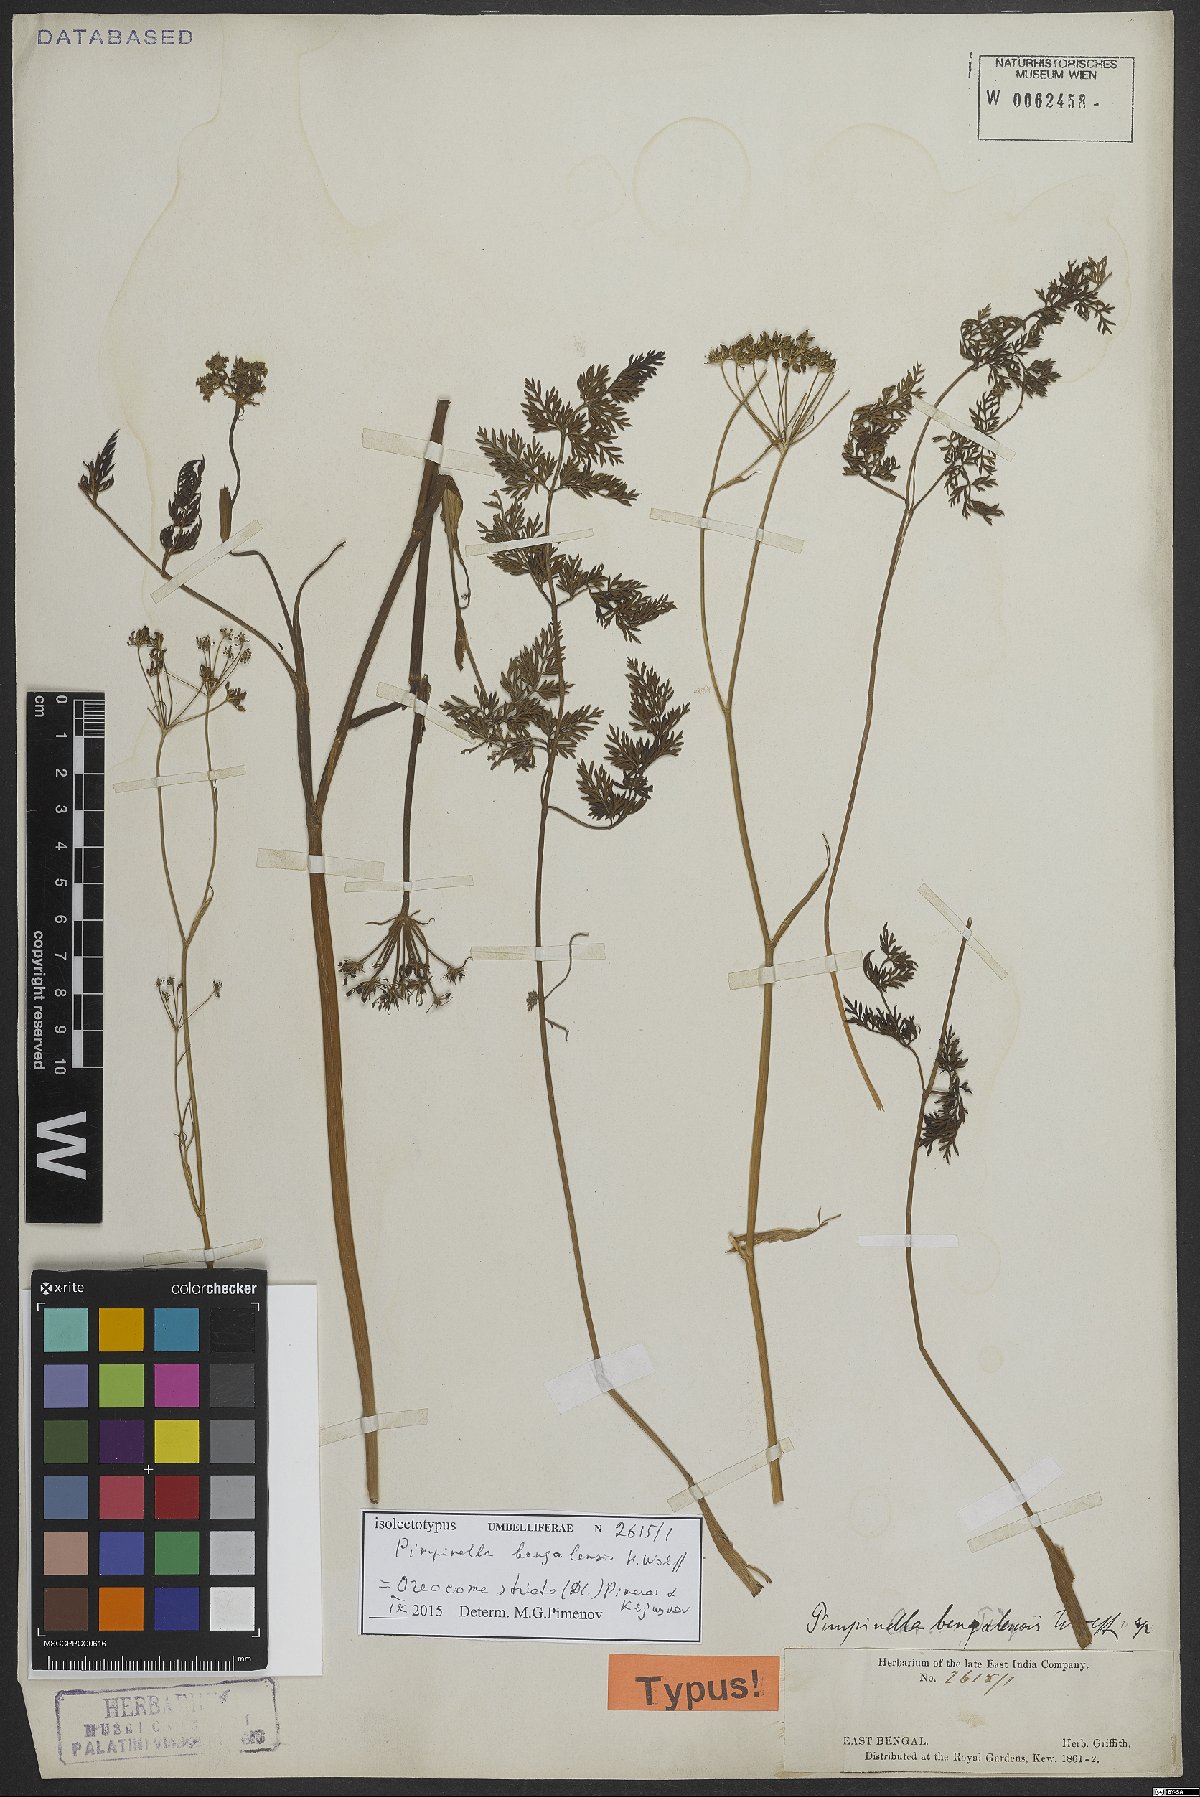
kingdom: Plantae
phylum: Tracheophyta
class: Magnoliopsida
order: Apiales
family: Apiaceae
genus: Oreocome
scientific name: Oreocome striata
